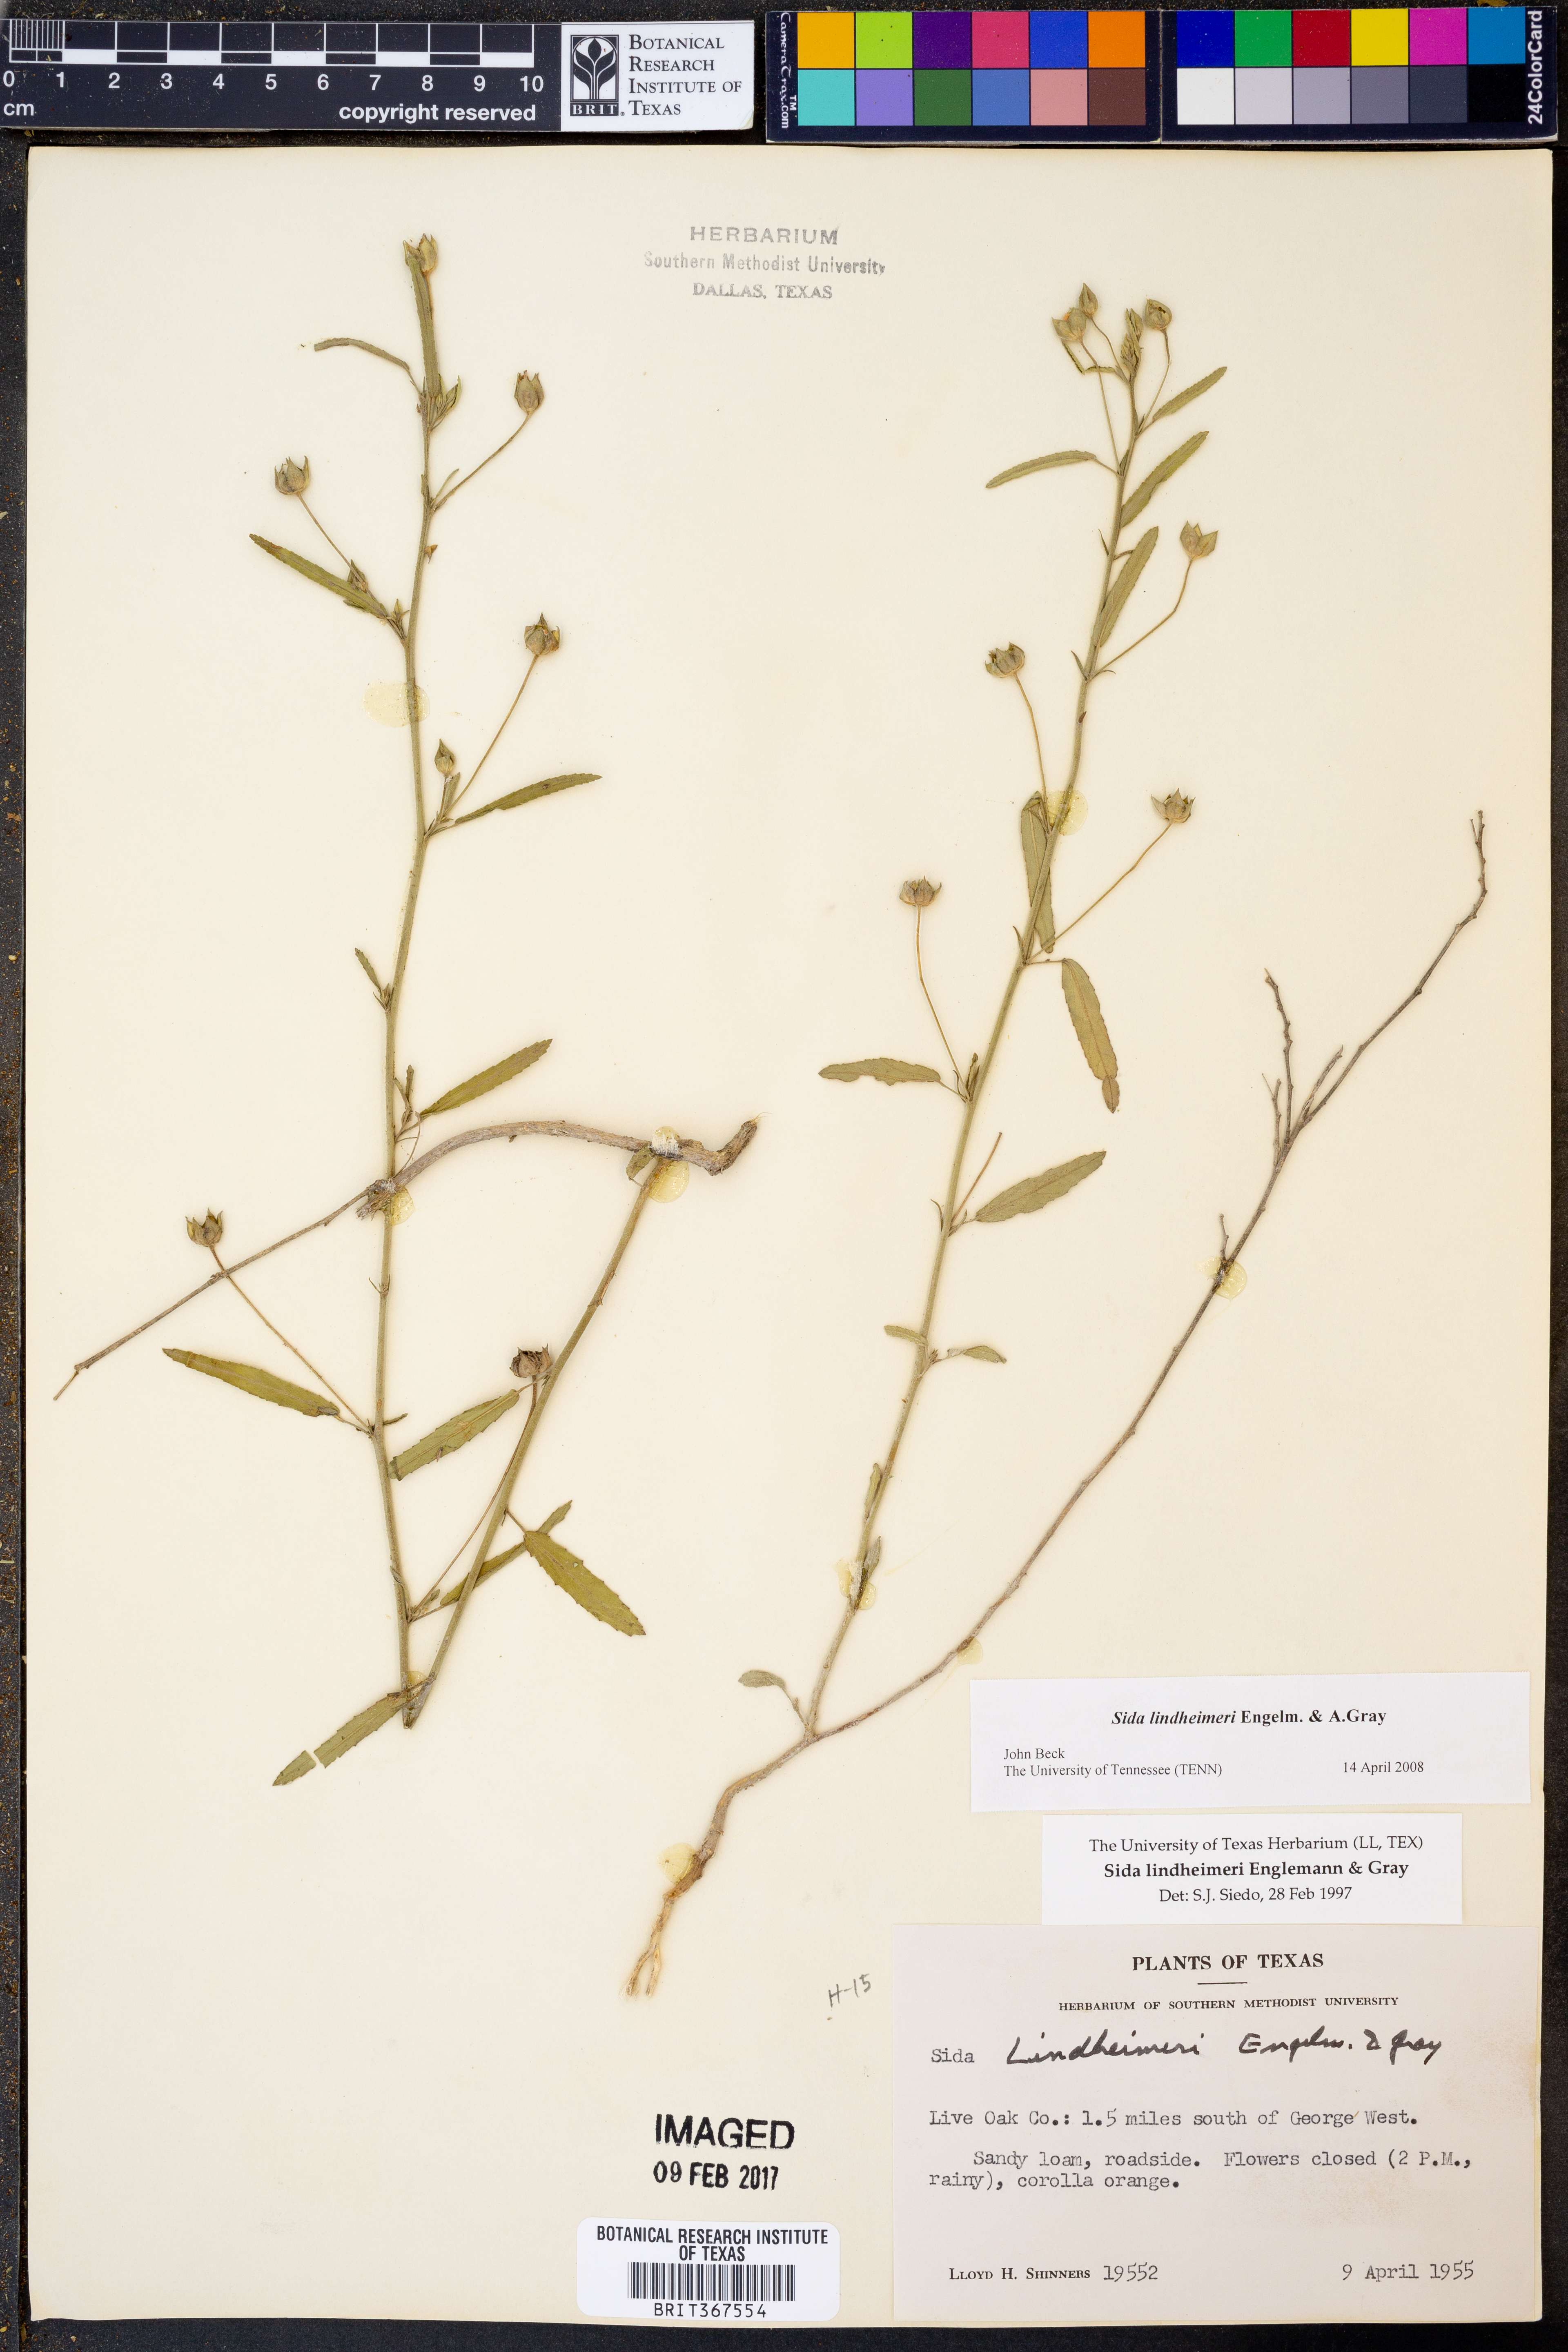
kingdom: Plantae
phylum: Tracheophyta
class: Magnoliopsida
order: Malvales
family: Malvaceae
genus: Sida
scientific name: Sida lindheimeri
